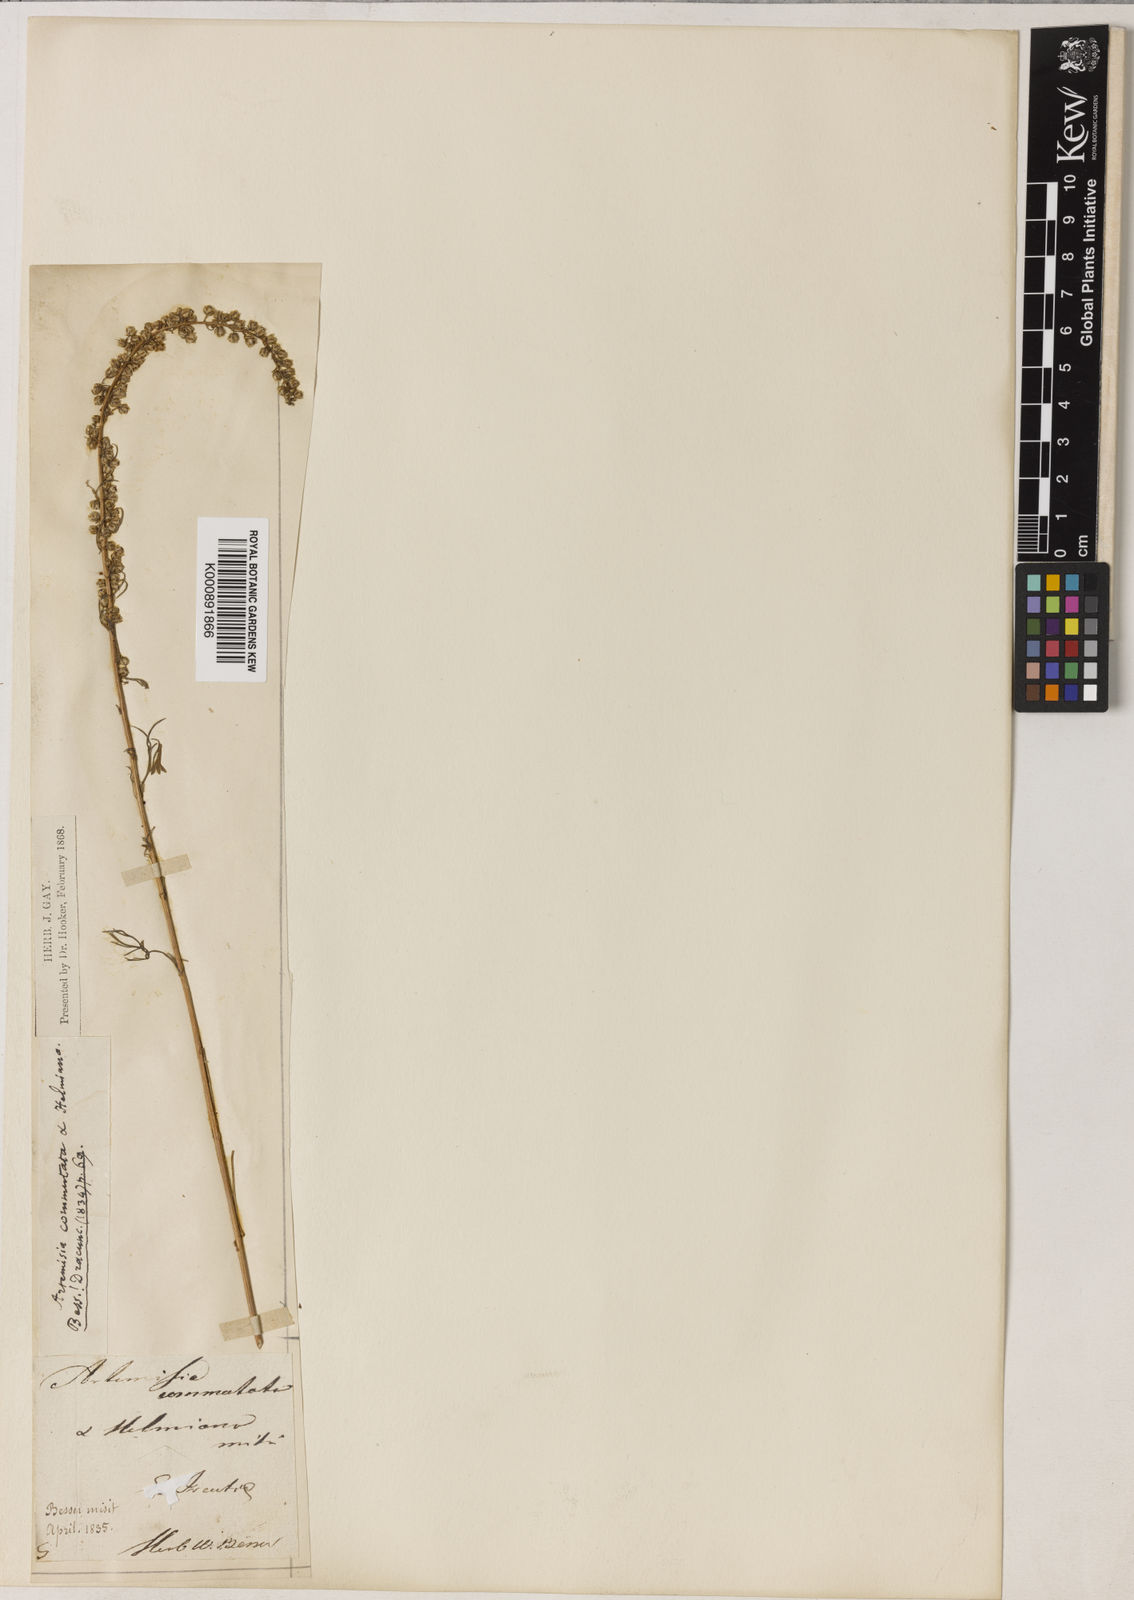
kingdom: Plantae
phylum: Tracheophyta
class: Magnoliopsida
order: Asterales
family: Asteraceae
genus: Artemisia
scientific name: Artemisia pubescens
